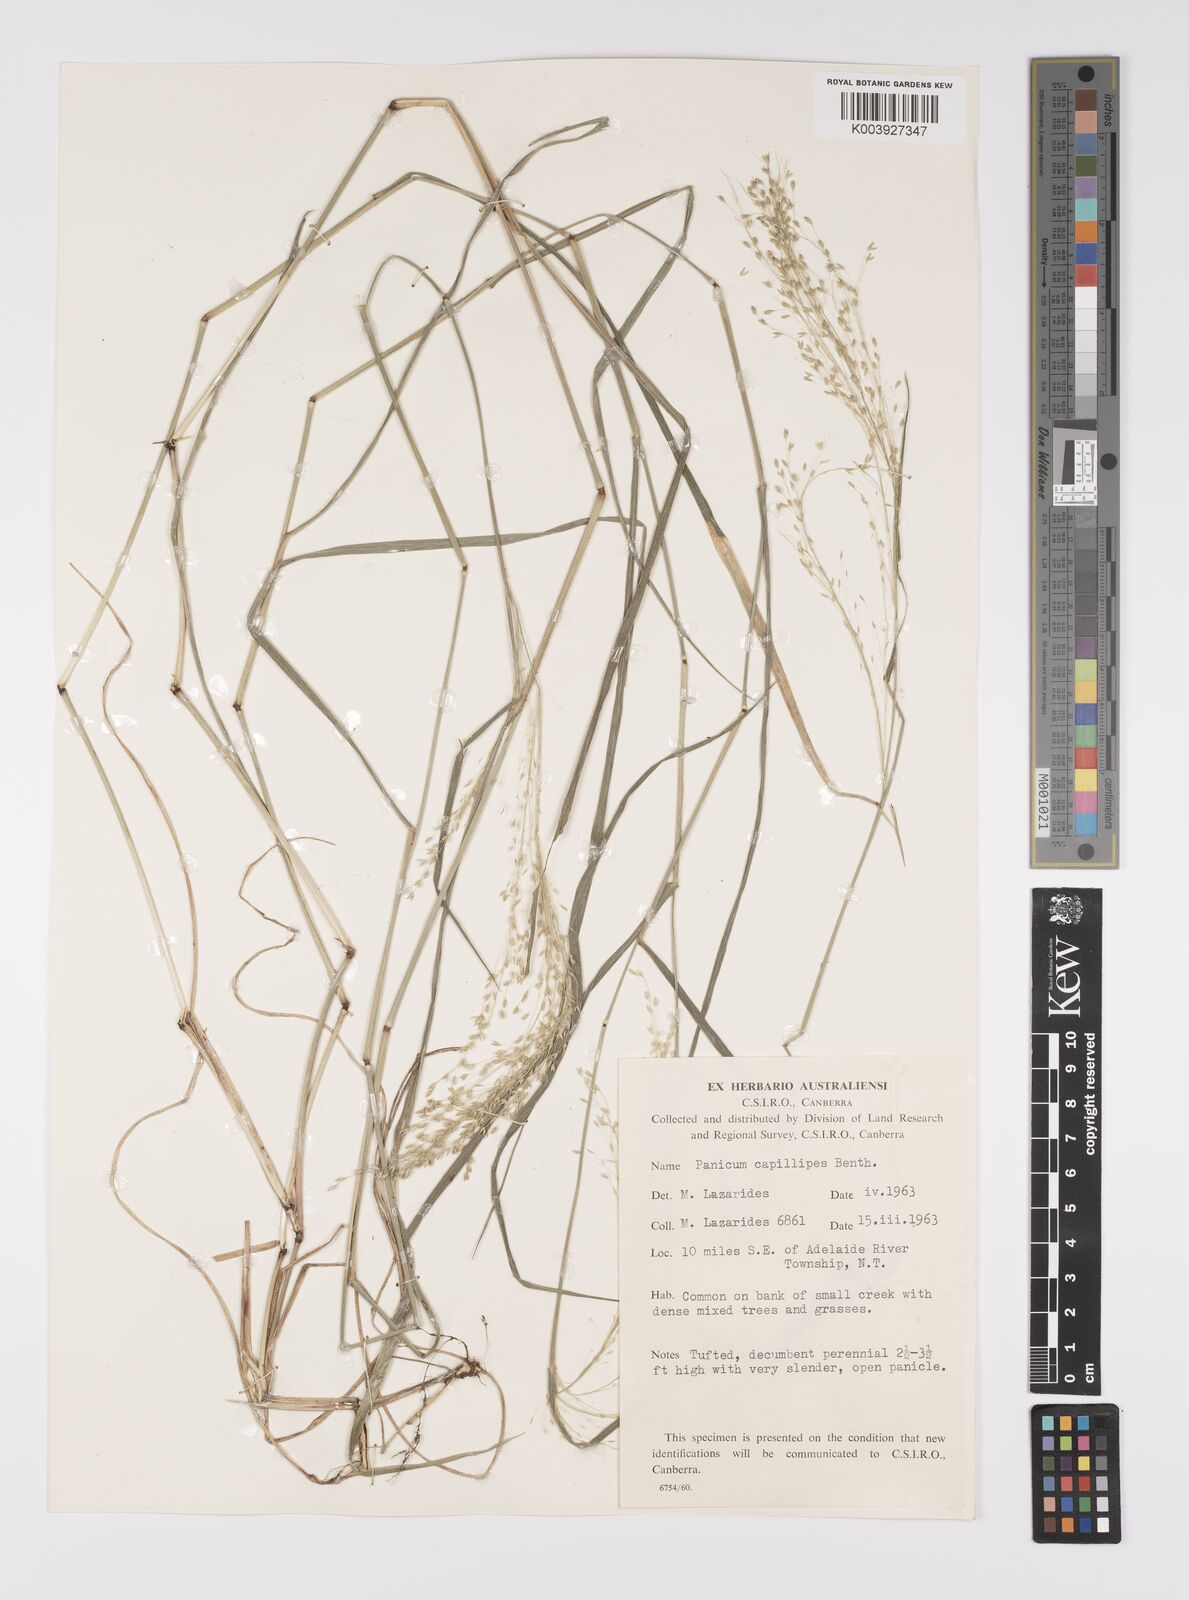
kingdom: Plantae
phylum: Tracheophyta
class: Liliopsida
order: Poales
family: Poaceae
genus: Whiteochloa
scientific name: Whiteochloa capillipes
